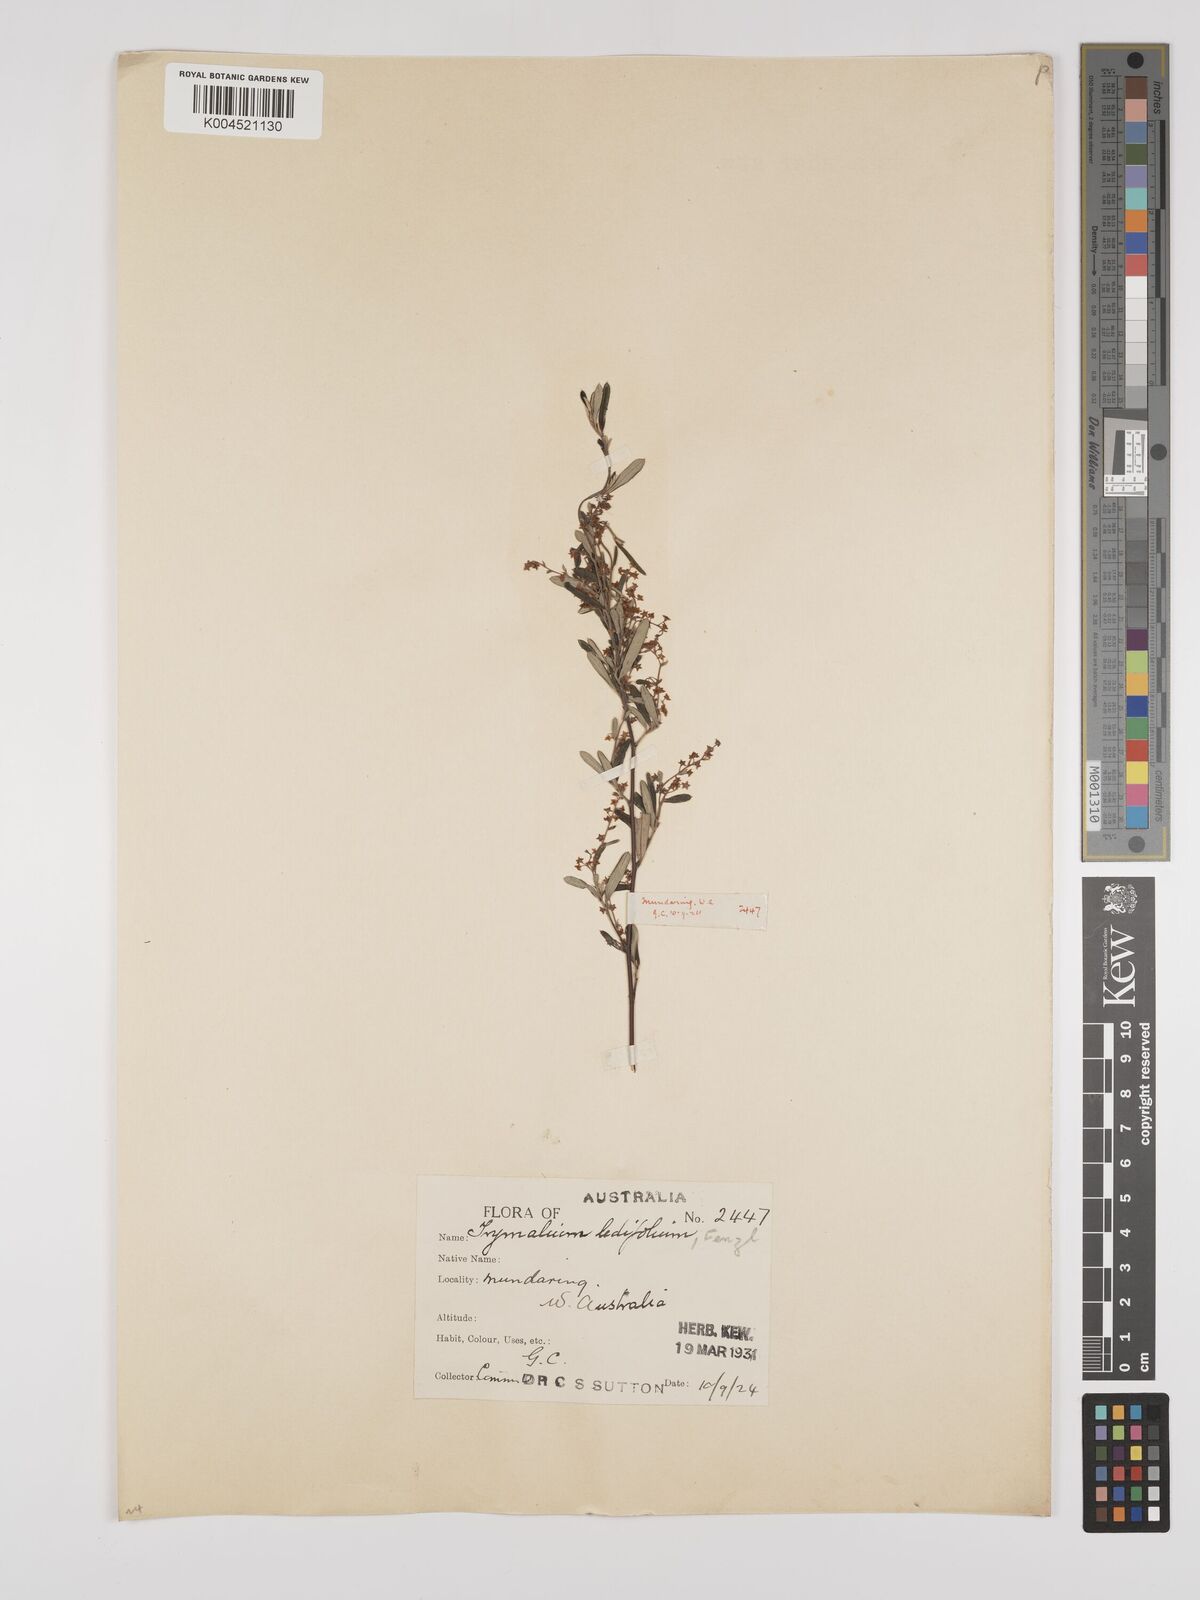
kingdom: Plantae
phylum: Tracheophyta
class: Magnoliopsida
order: Rosales
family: Rhamnaceae
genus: Trymalium
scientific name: Trymalium ledifolium
